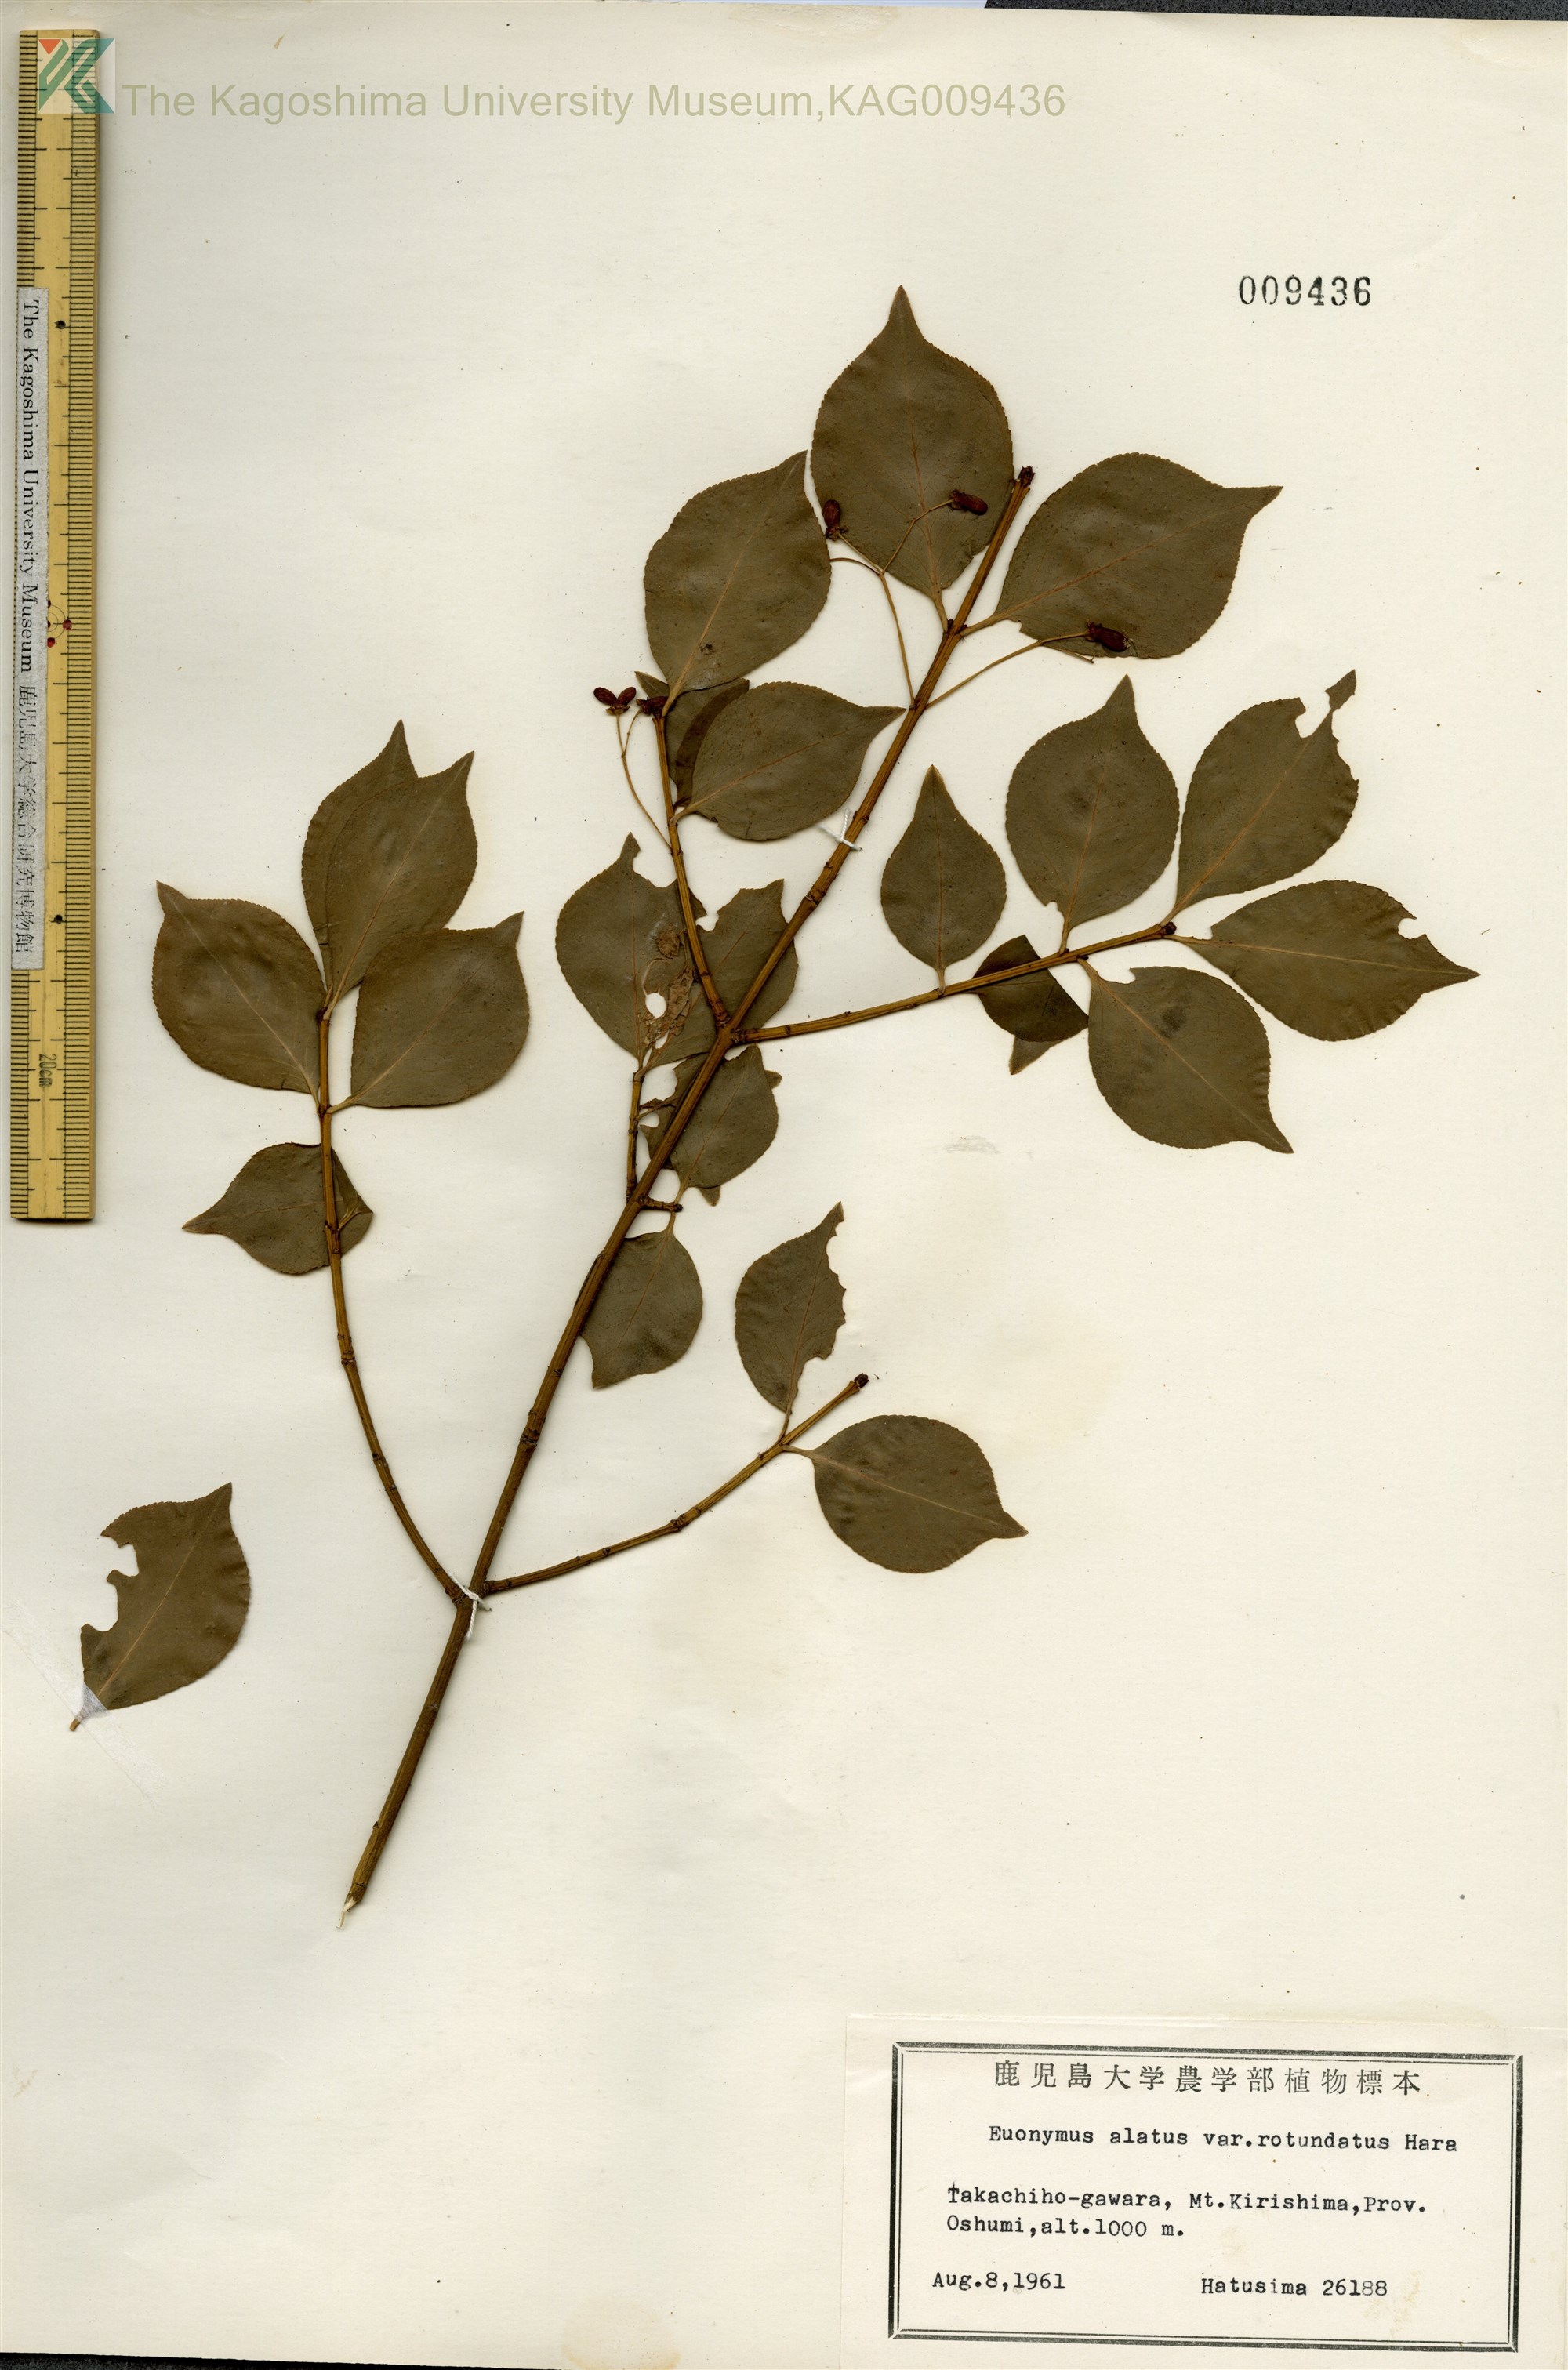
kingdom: Plantae
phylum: Tracheophyta
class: Magnoliopsida
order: Celastrales
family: Celastraceae
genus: Euonymus
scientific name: Euonymus alatus
